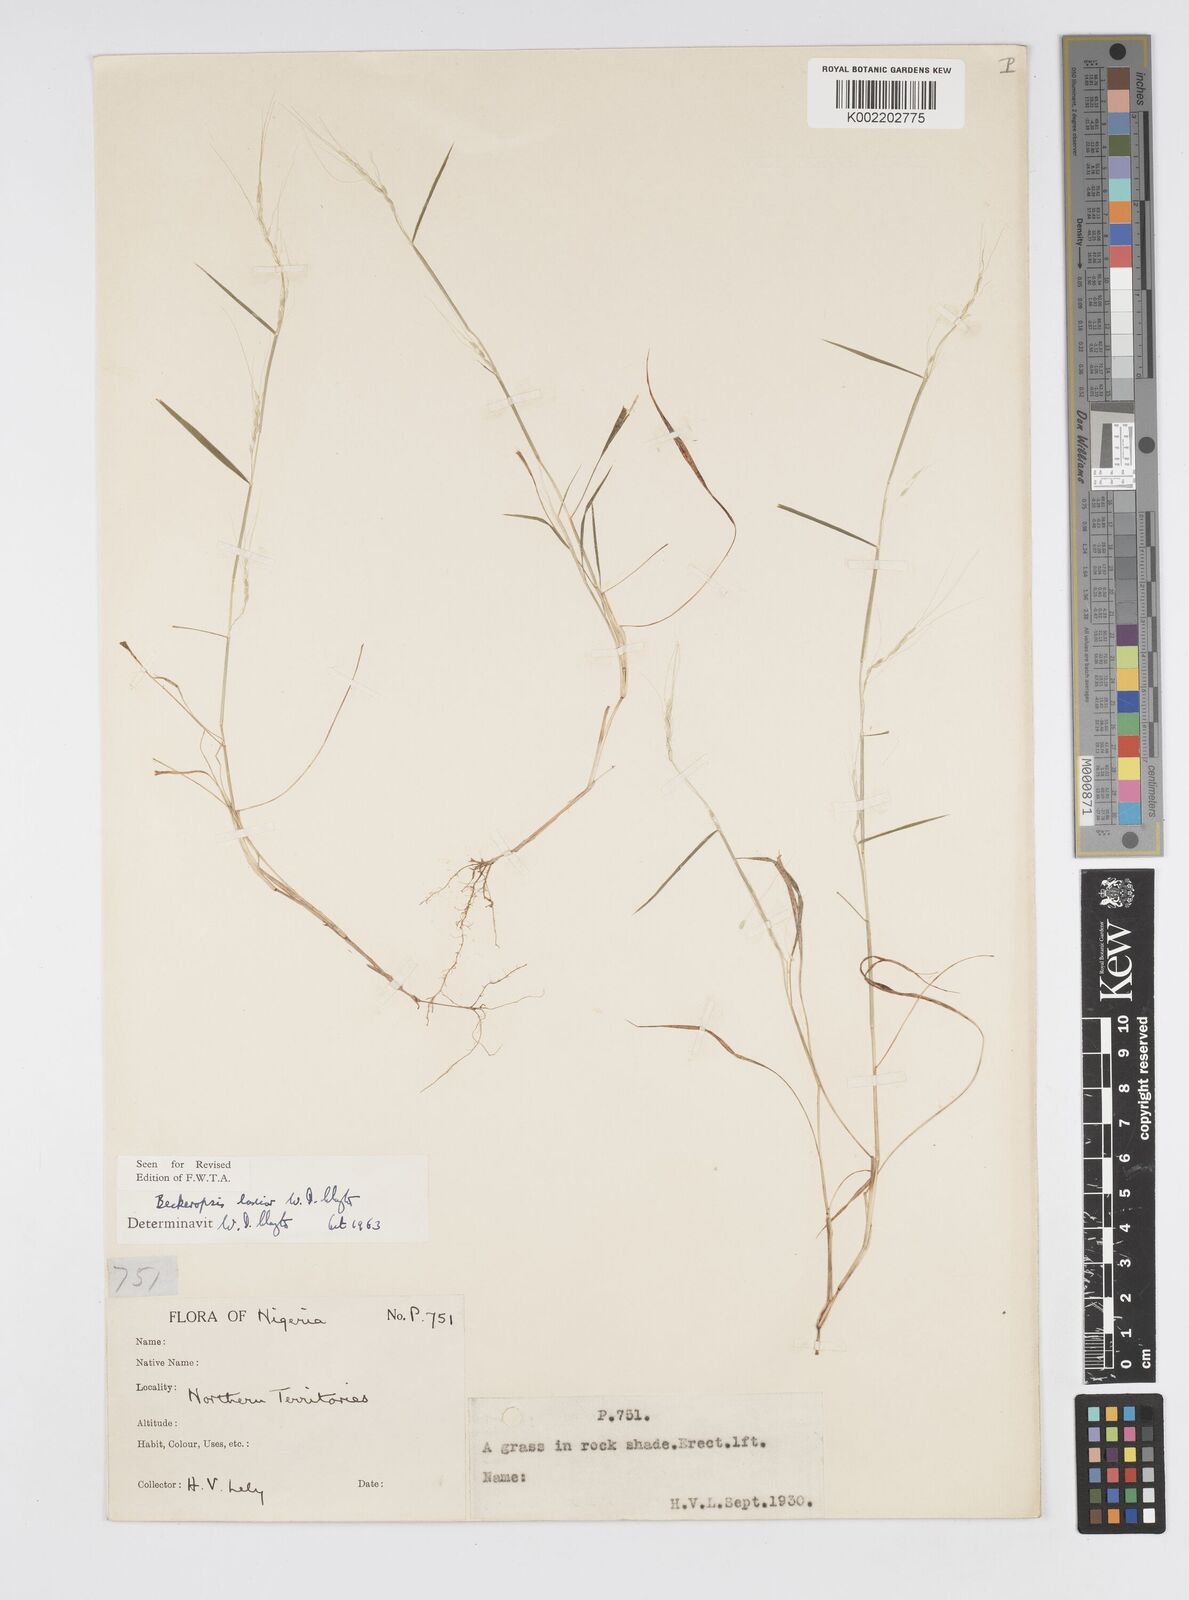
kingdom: Plantae
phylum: Tracheophyta
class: Liliopsida
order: Poales
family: Poaceae
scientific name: Poaceae
